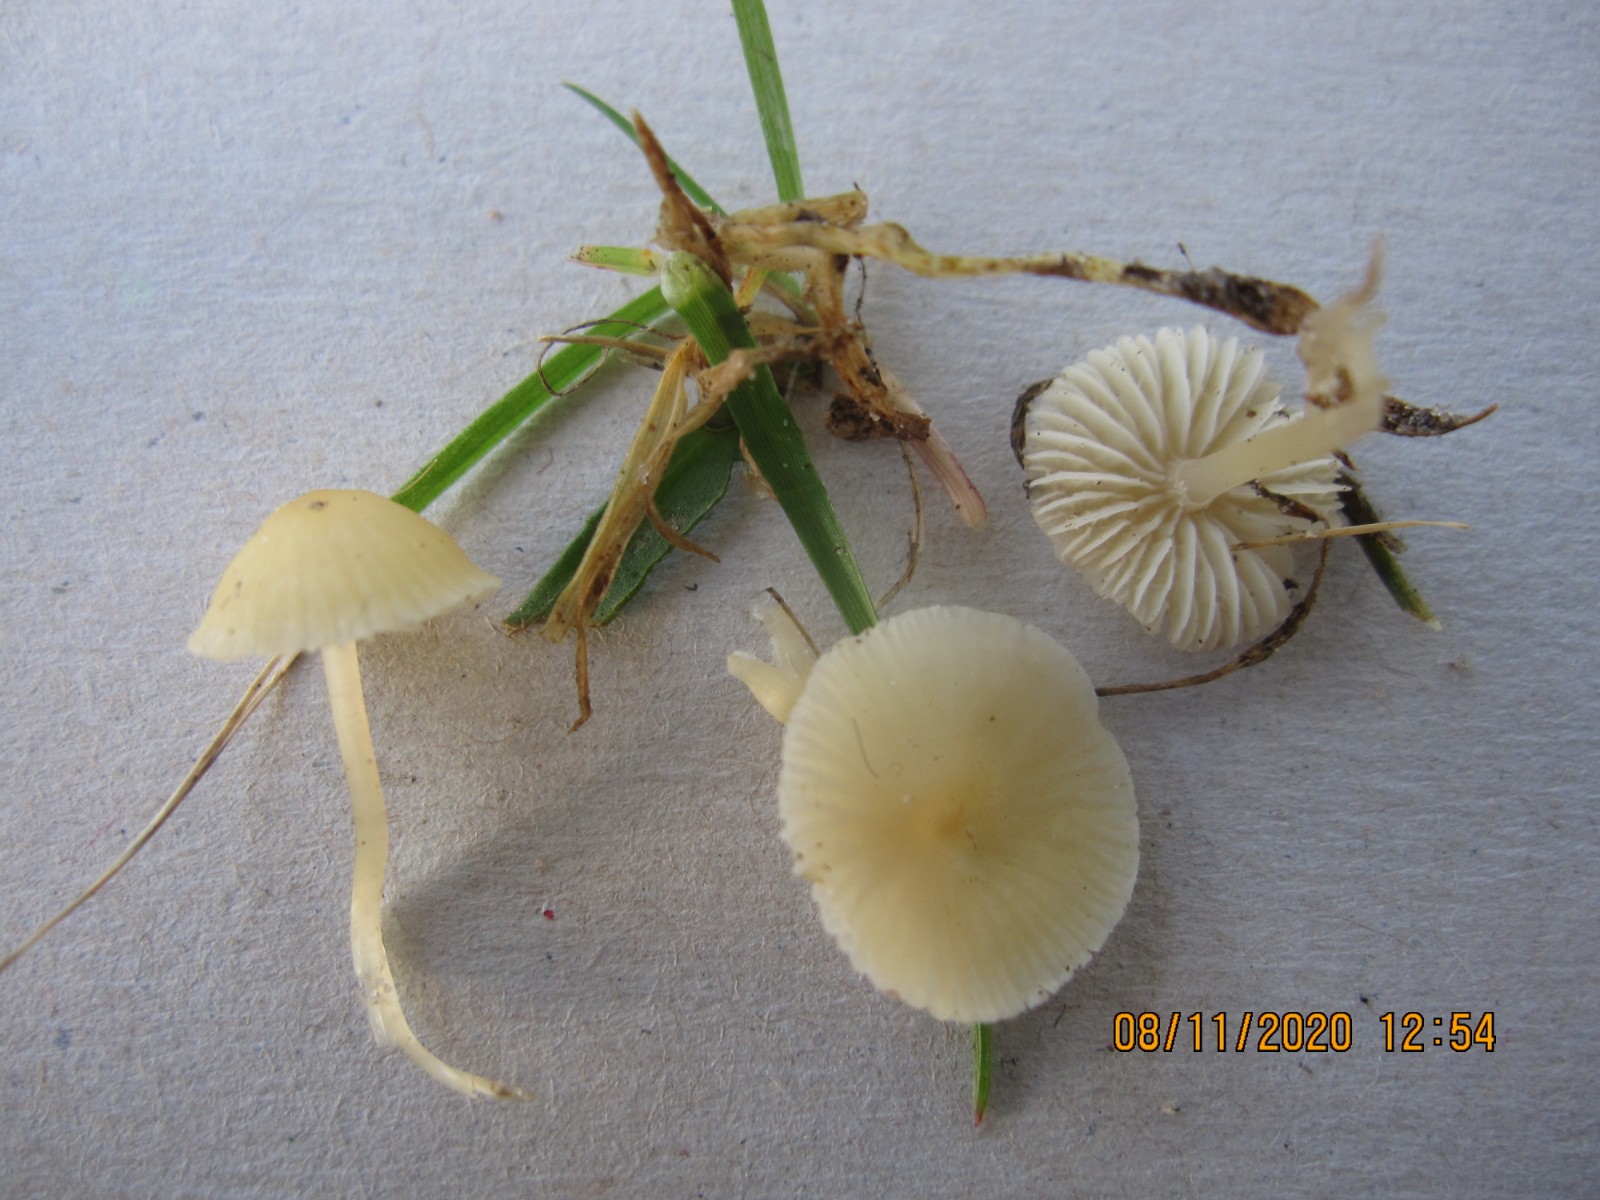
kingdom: Fungi
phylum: Basidiomycota
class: Agaricomycetes
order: Agaricales
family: Mycenaceae
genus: Atheniella
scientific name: Atheniella flavoalba
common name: gulhvid huesvamp
